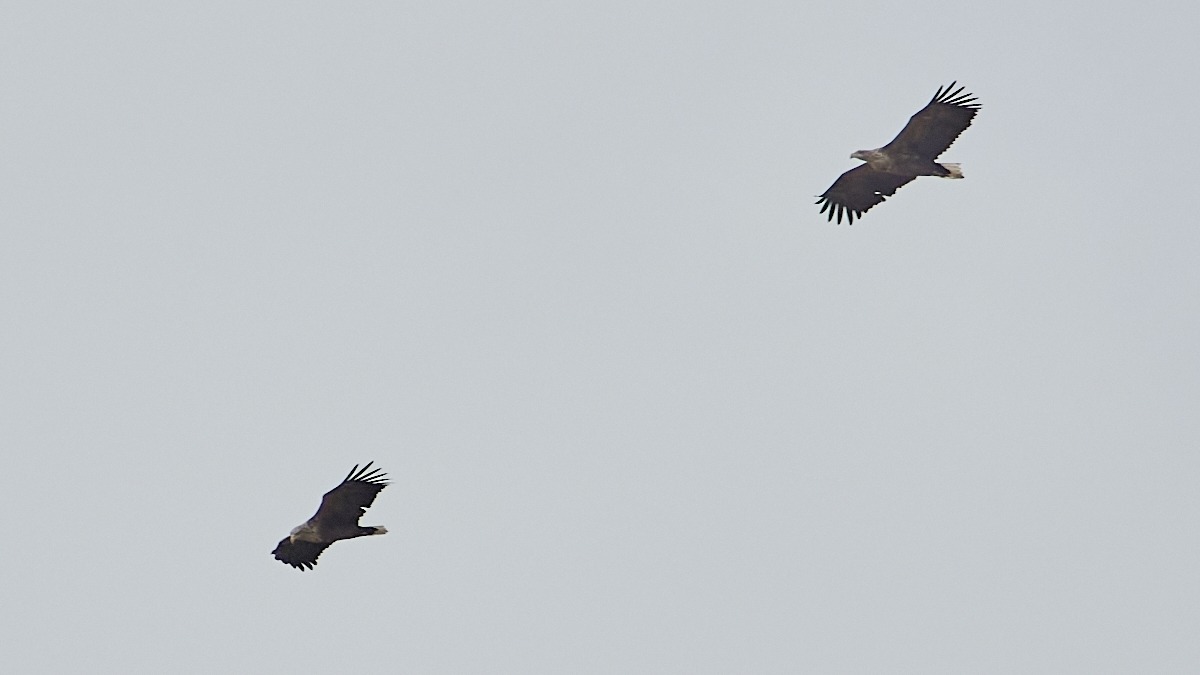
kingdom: Animalia
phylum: Chordata
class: Aves
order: Accipitriformes
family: Accipitridae
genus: Haliaeetus
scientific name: Haliaeetus albicilla
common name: Havørn
